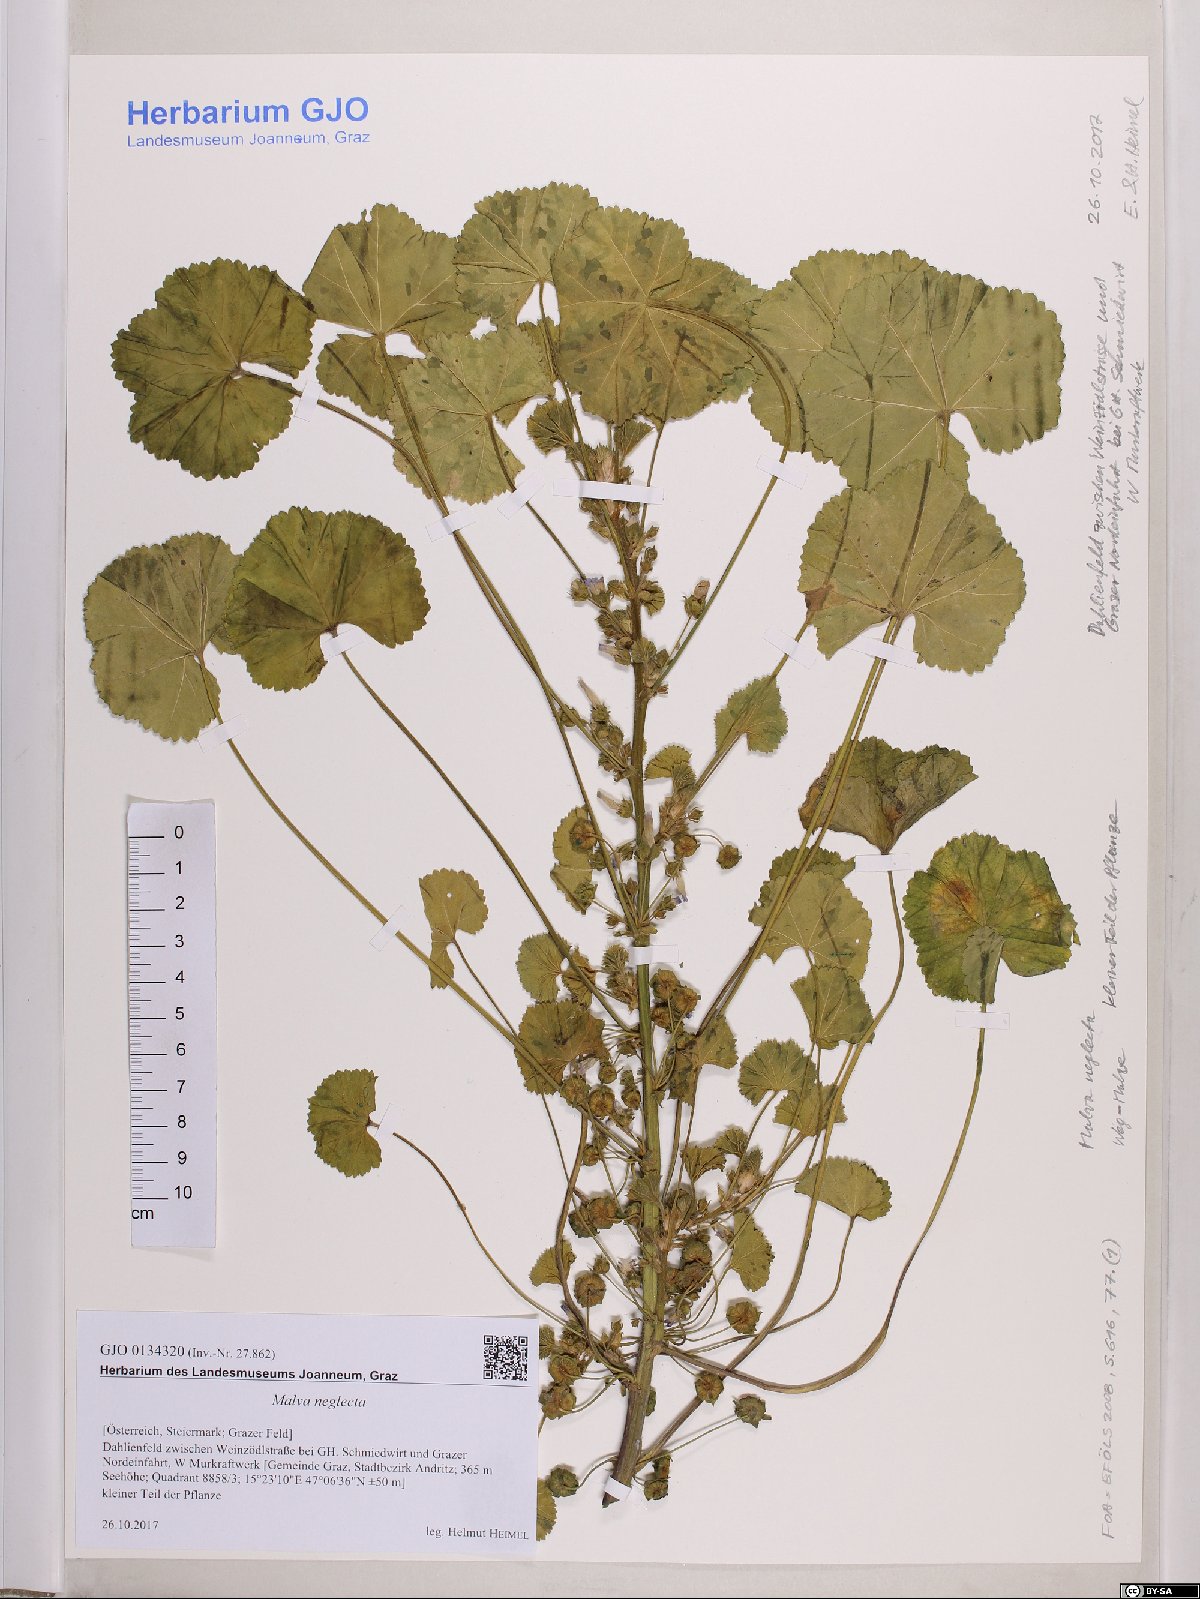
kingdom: Plantae
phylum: Tracheophyta
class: Magnoliopsida
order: Malvales
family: Malvaceae
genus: Malva
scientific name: Malva neglecta
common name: Common mallow
